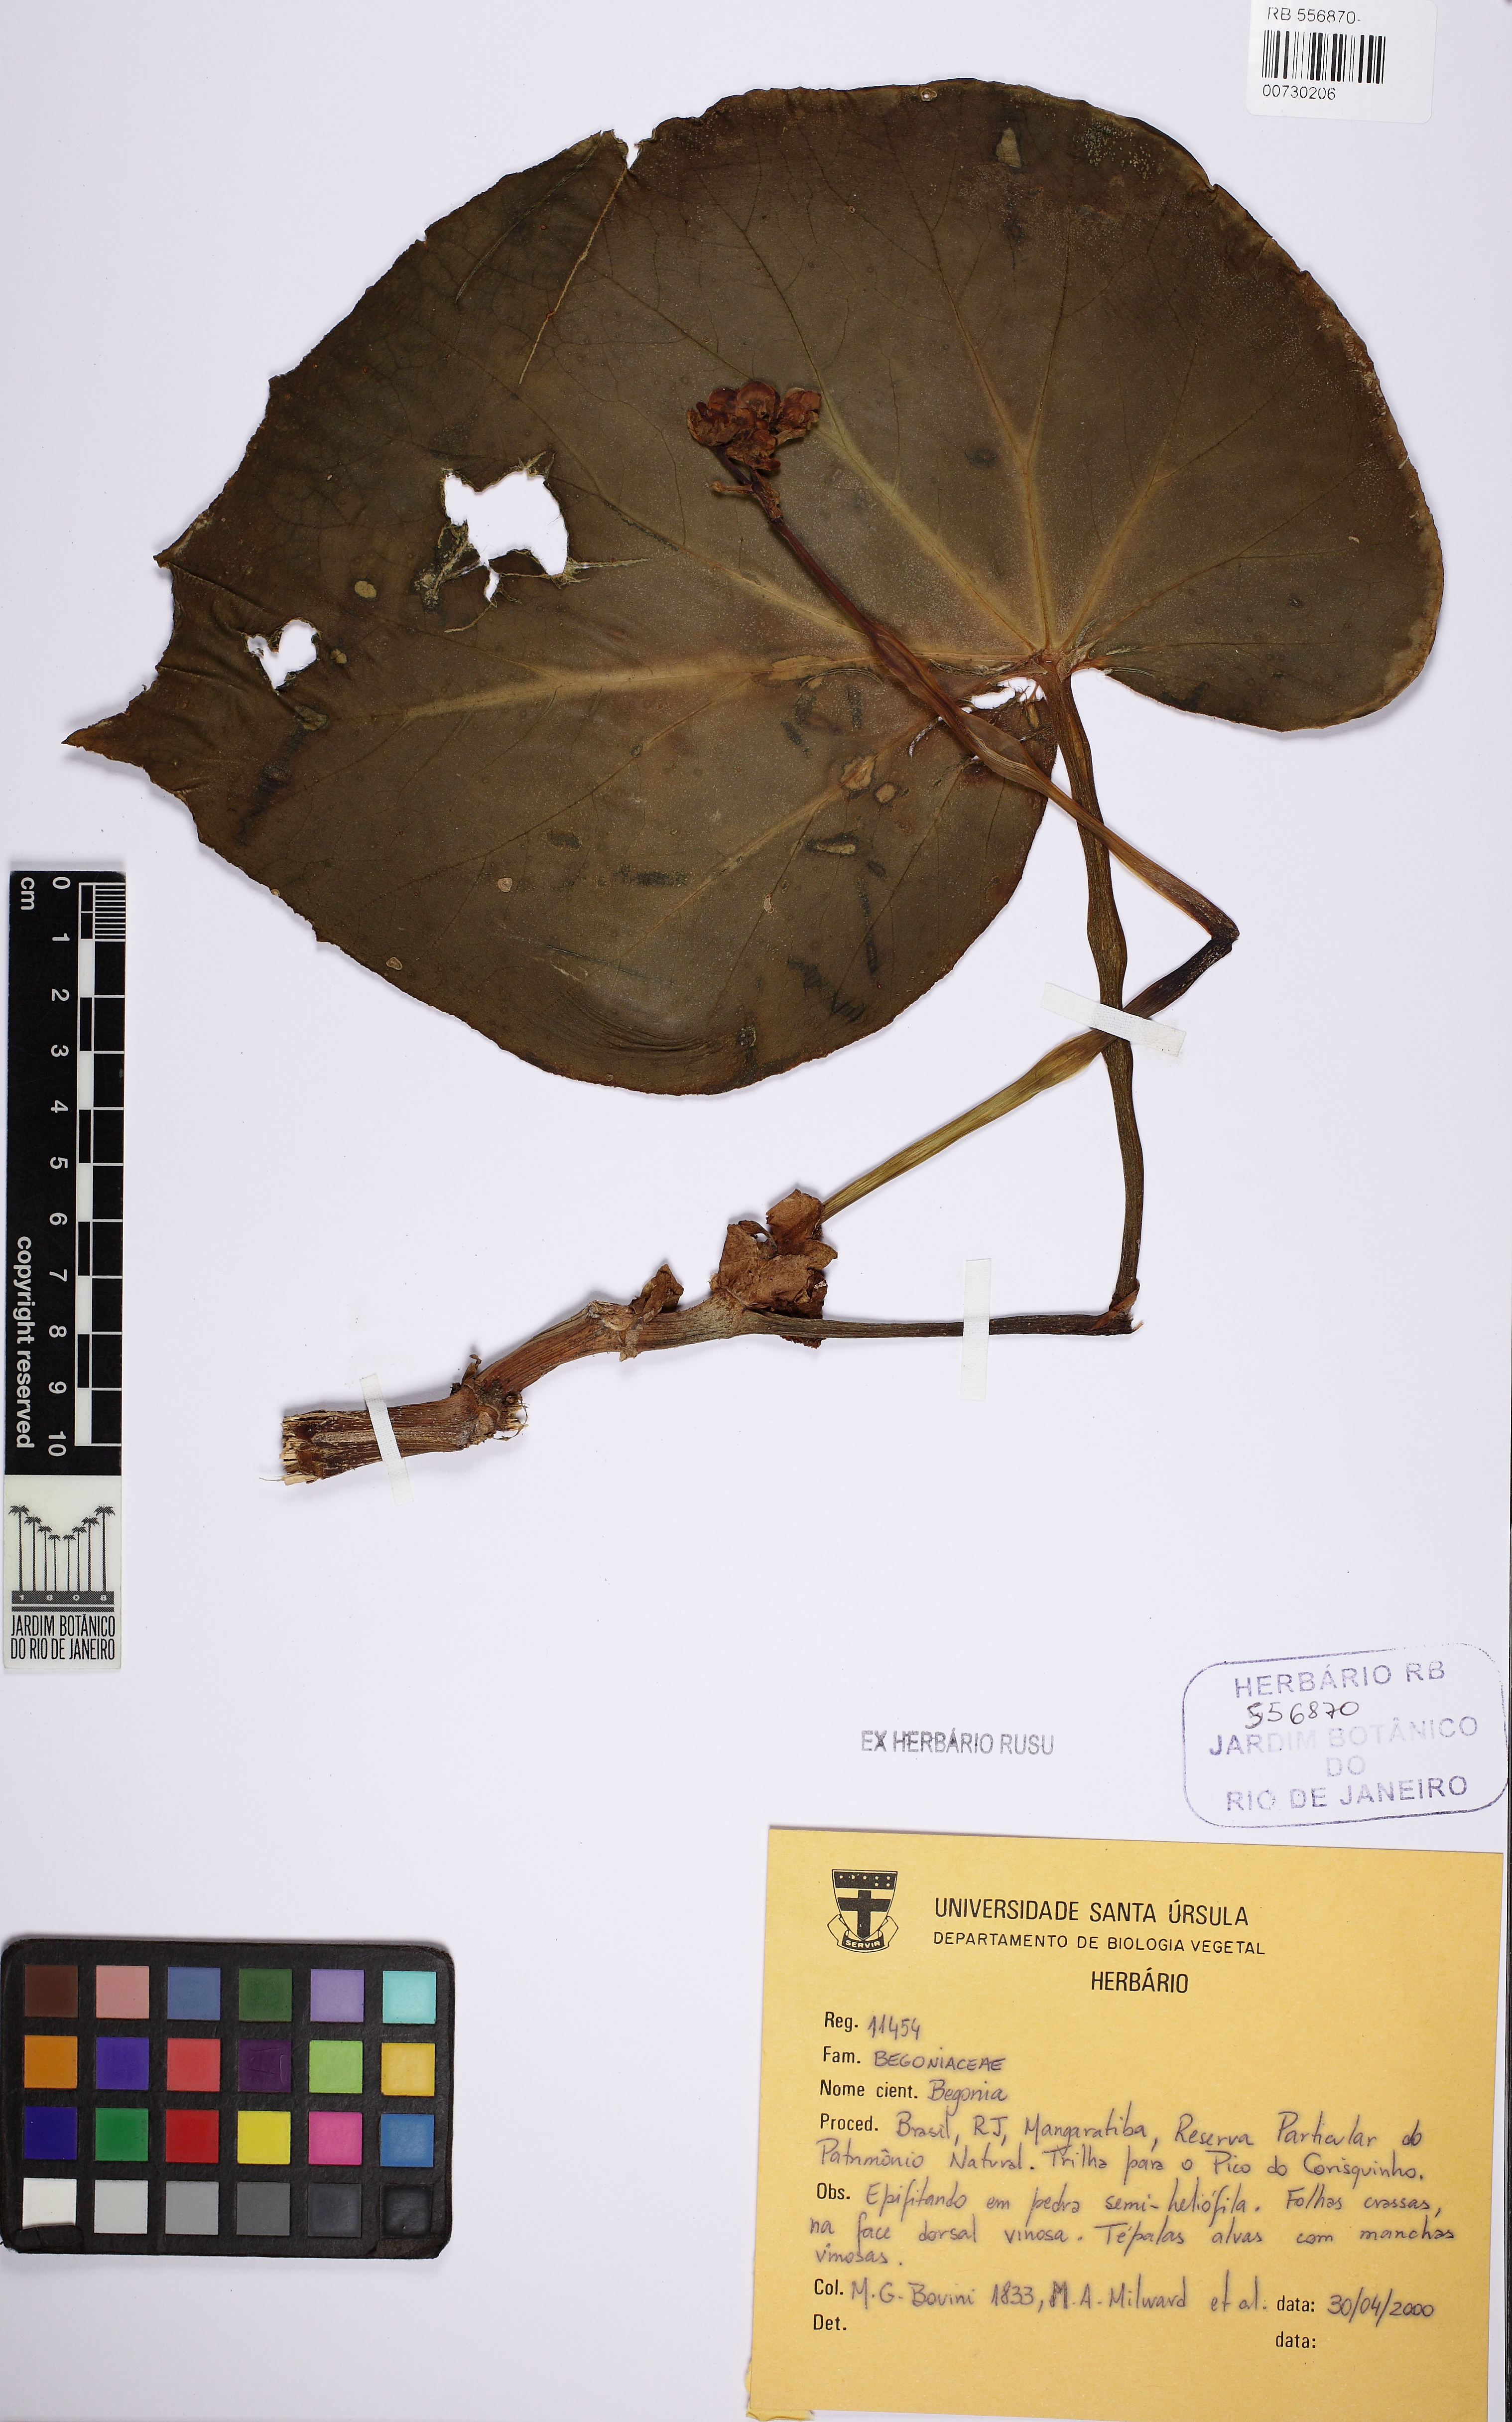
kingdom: Plantae
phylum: Tracheophyta
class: Magnoliopsida
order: Cucurbitales
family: Begoniaceae
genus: Begonia
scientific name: Begonia
